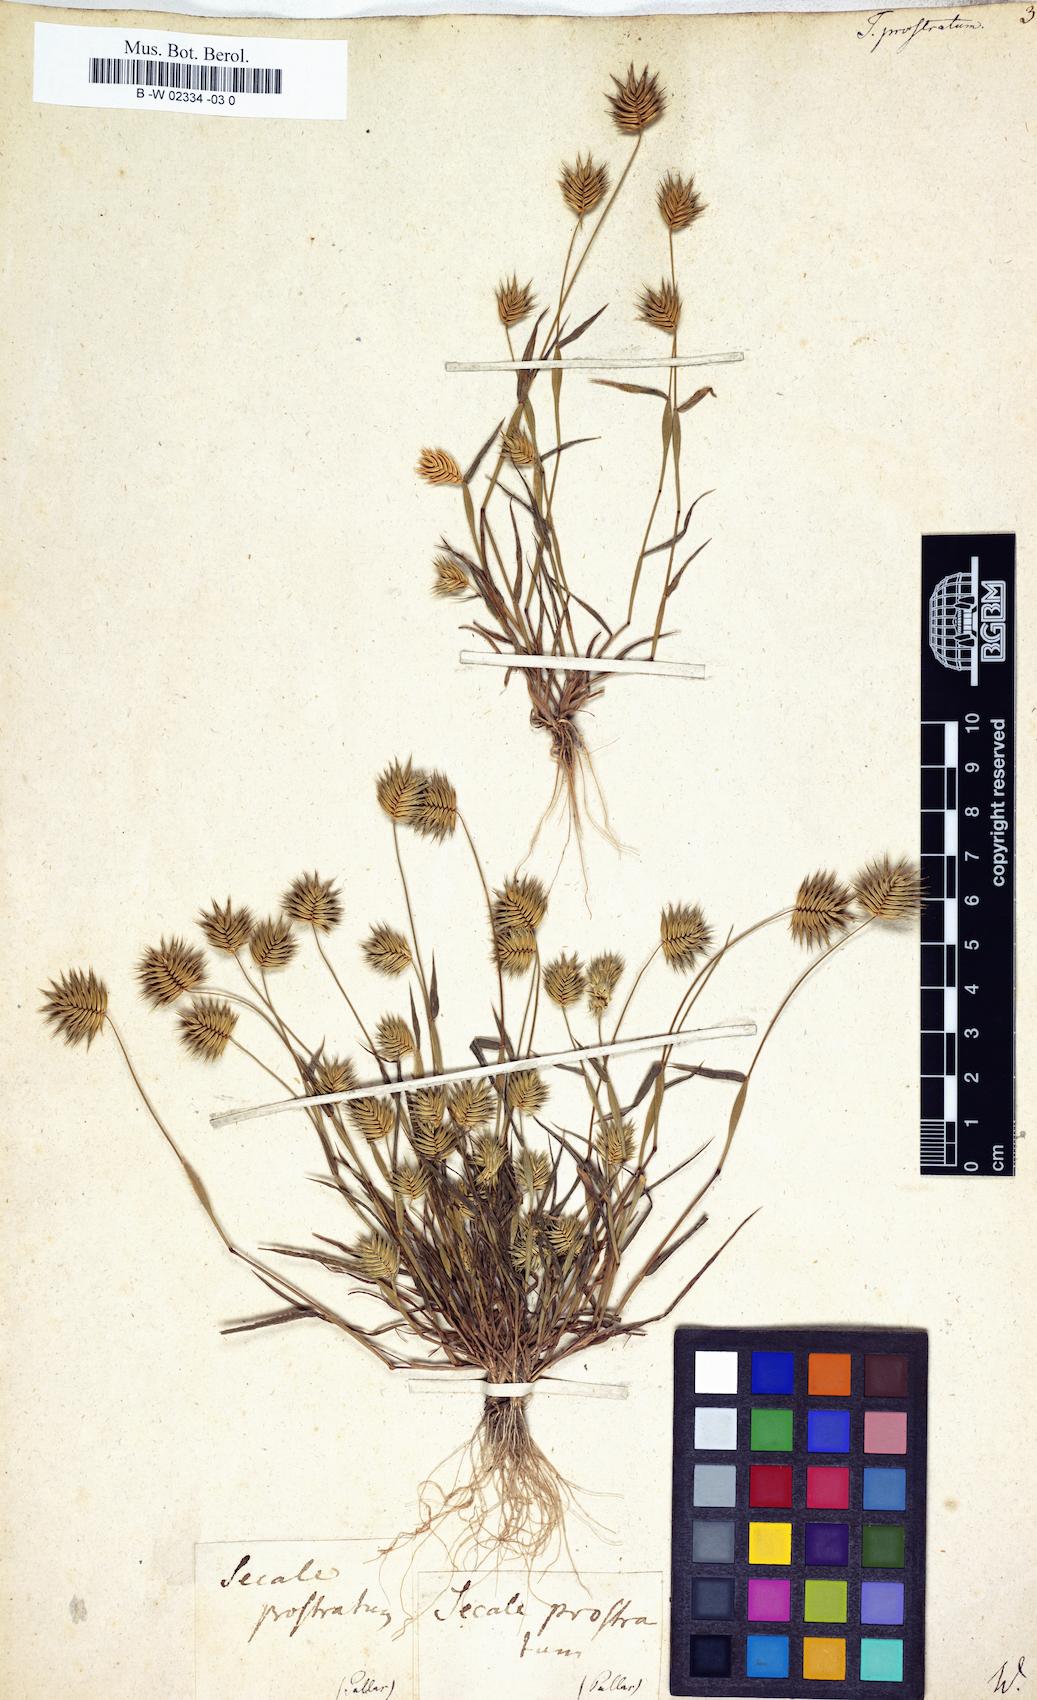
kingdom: Plantae
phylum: Tracheophyta
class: Liliopsida
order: Poales
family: Poaceae
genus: Eremopyrum
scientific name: Eremopyrum
